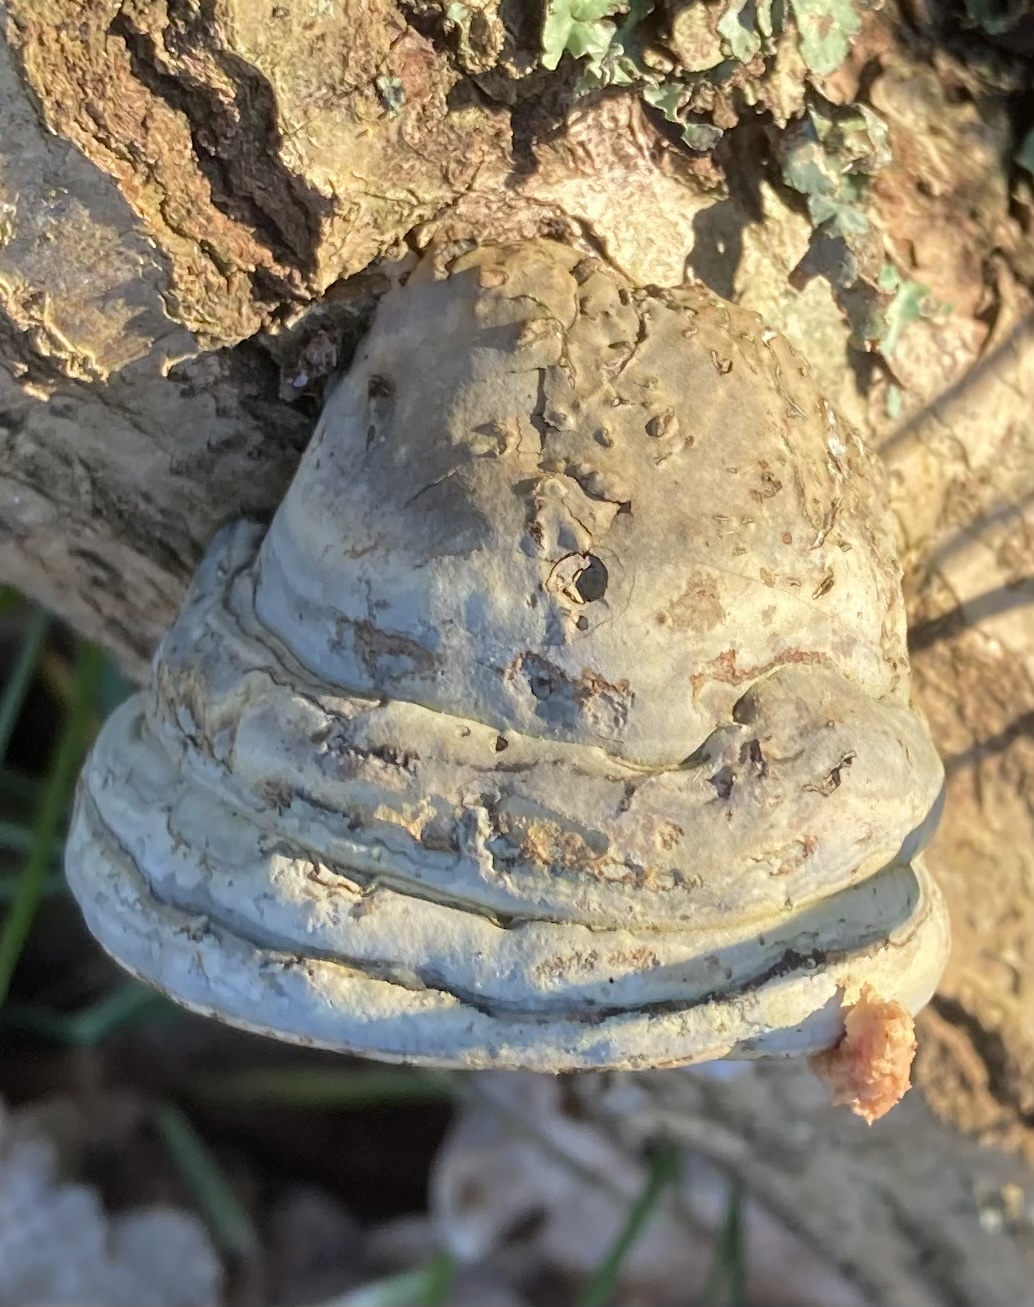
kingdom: Fungi
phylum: Basidiomycota
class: Agaricomycetes
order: Polyporales
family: Polyporaceae
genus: Fomes
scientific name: Fomes fomentarius
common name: tøndersvamp
